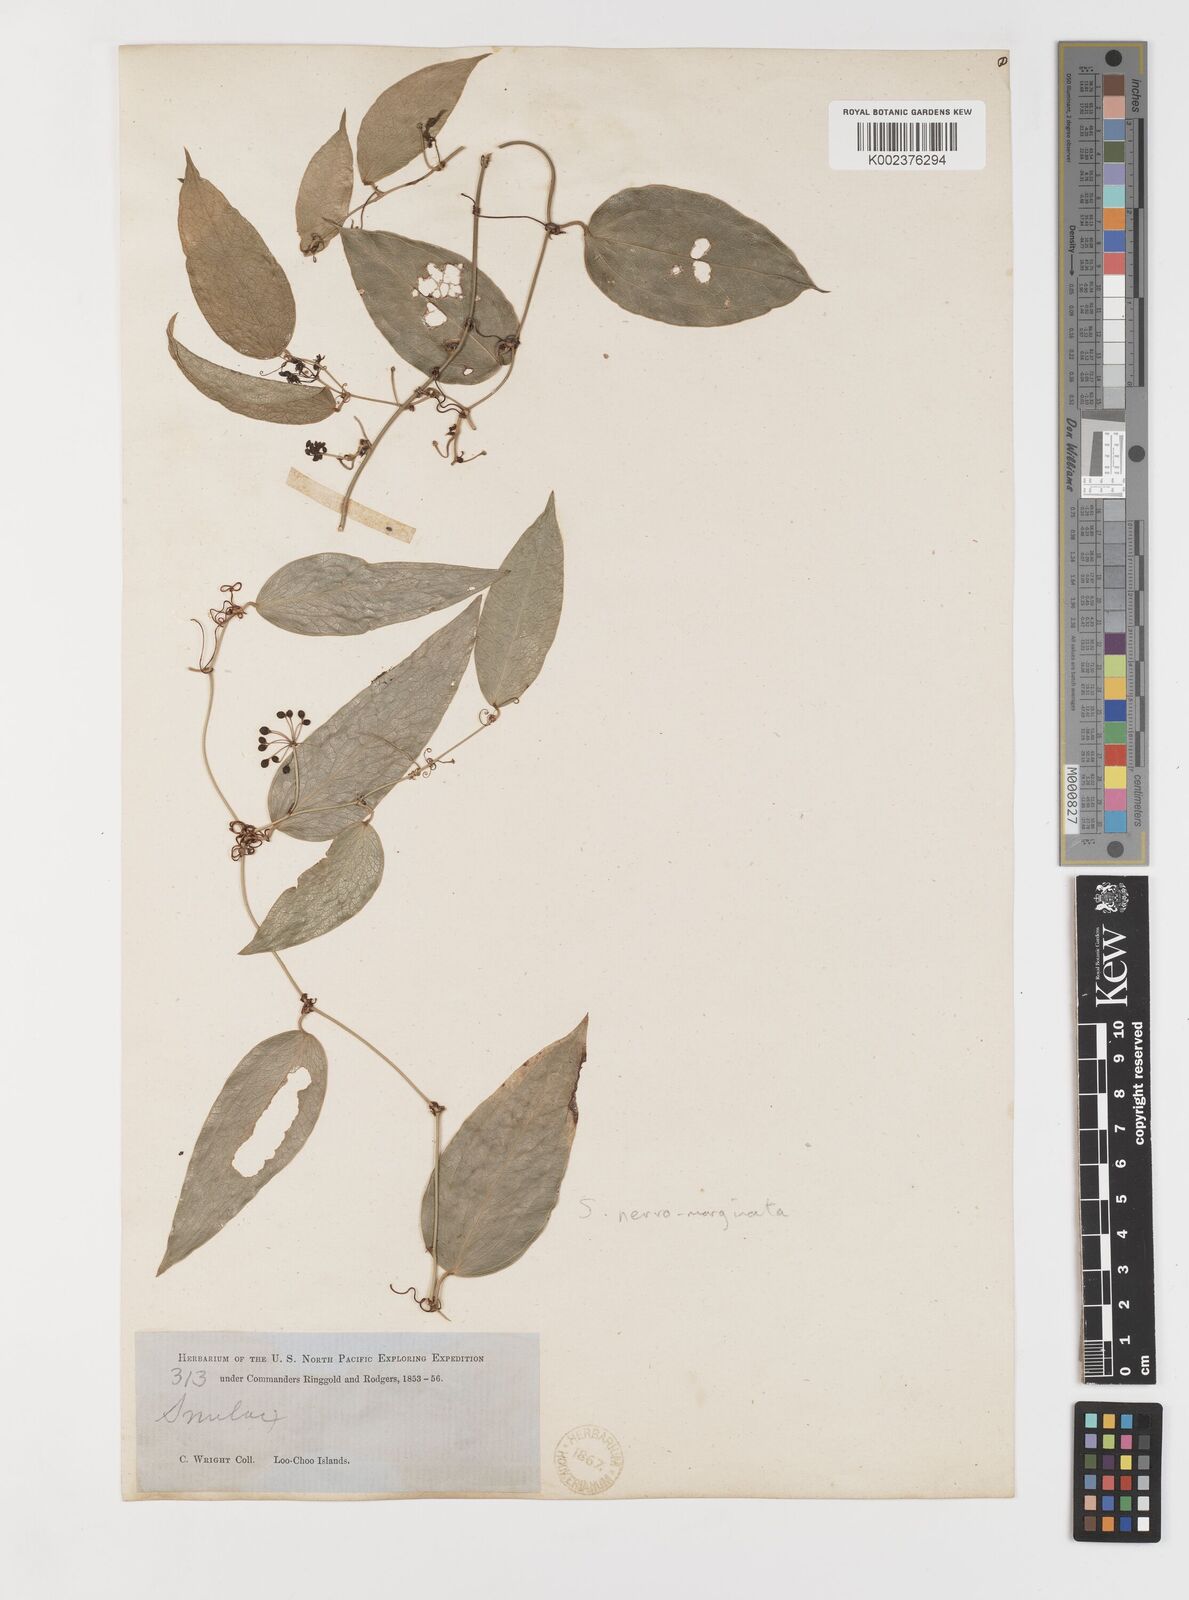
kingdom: Plantae
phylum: Tracheophyta
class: Liliopsida
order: Liliales
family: Smilacaceae
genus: Smilax
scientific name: Smilax nervomarginata
